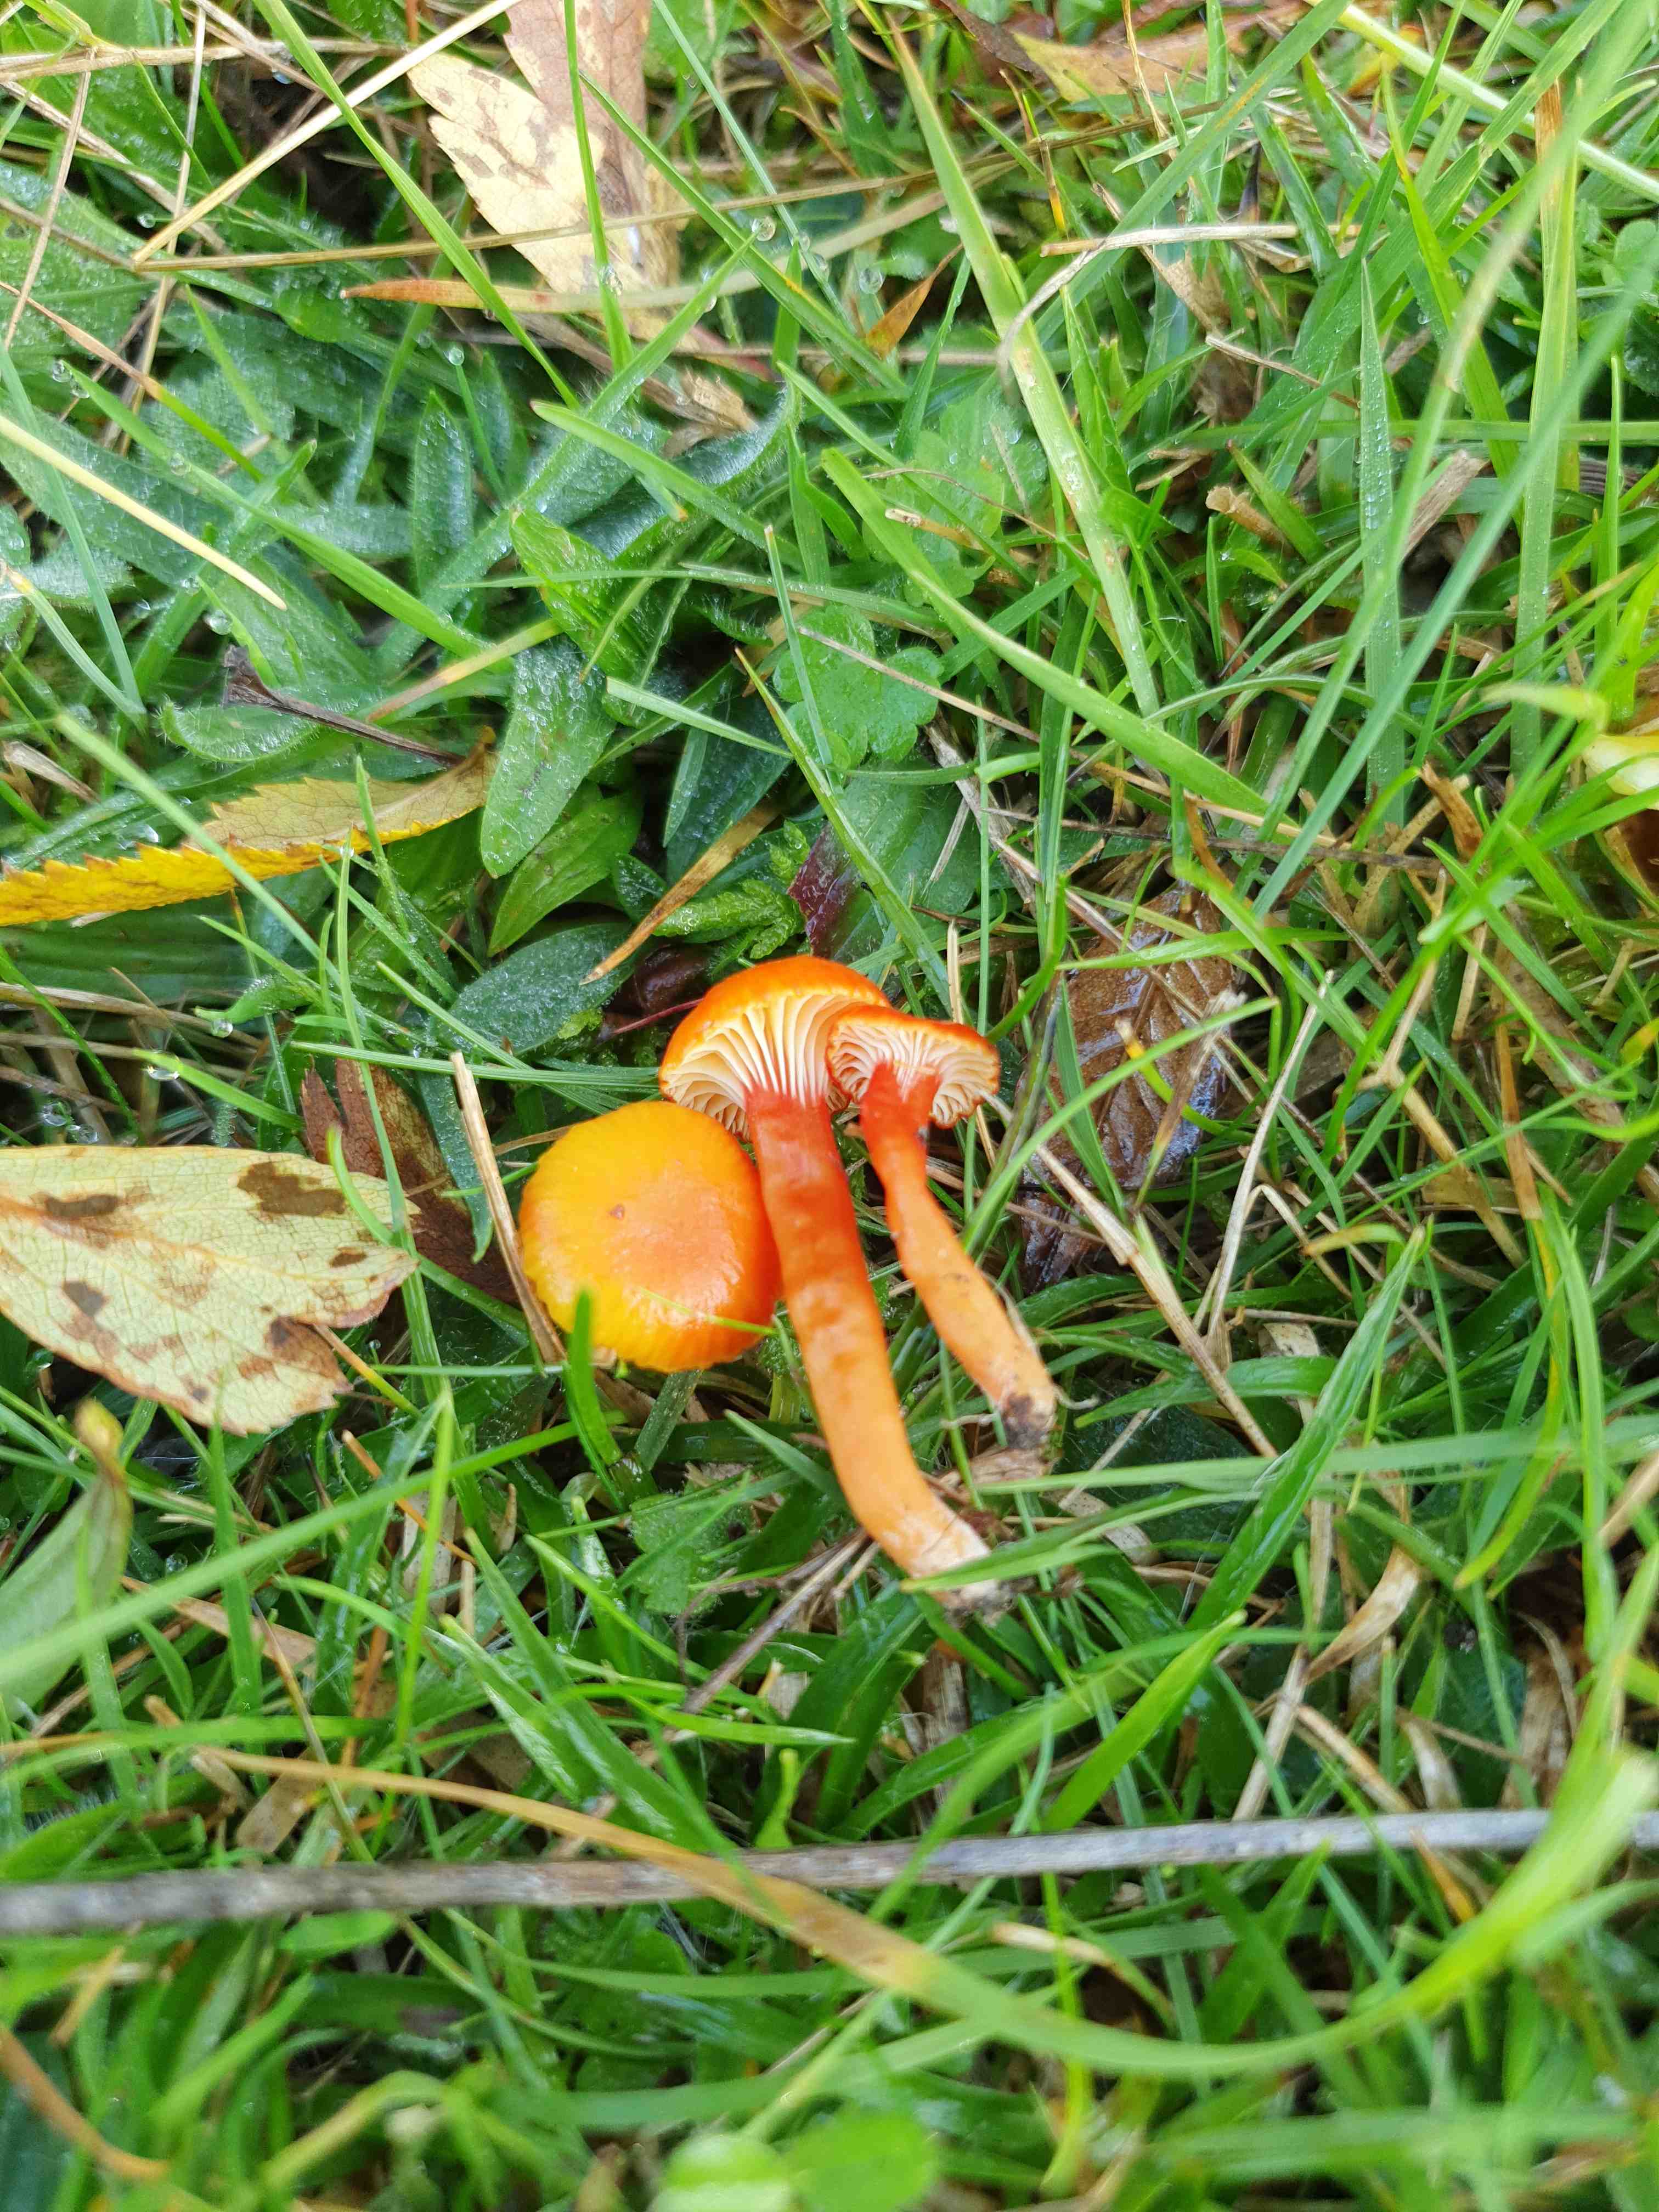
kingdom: Fungi
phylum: Basidiomycota
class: Agaricomycetes
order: Agaricales
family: Hygrophoraceae
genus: Hygrocybe
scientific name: Hygrocybe insipida
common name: liden vokshat
